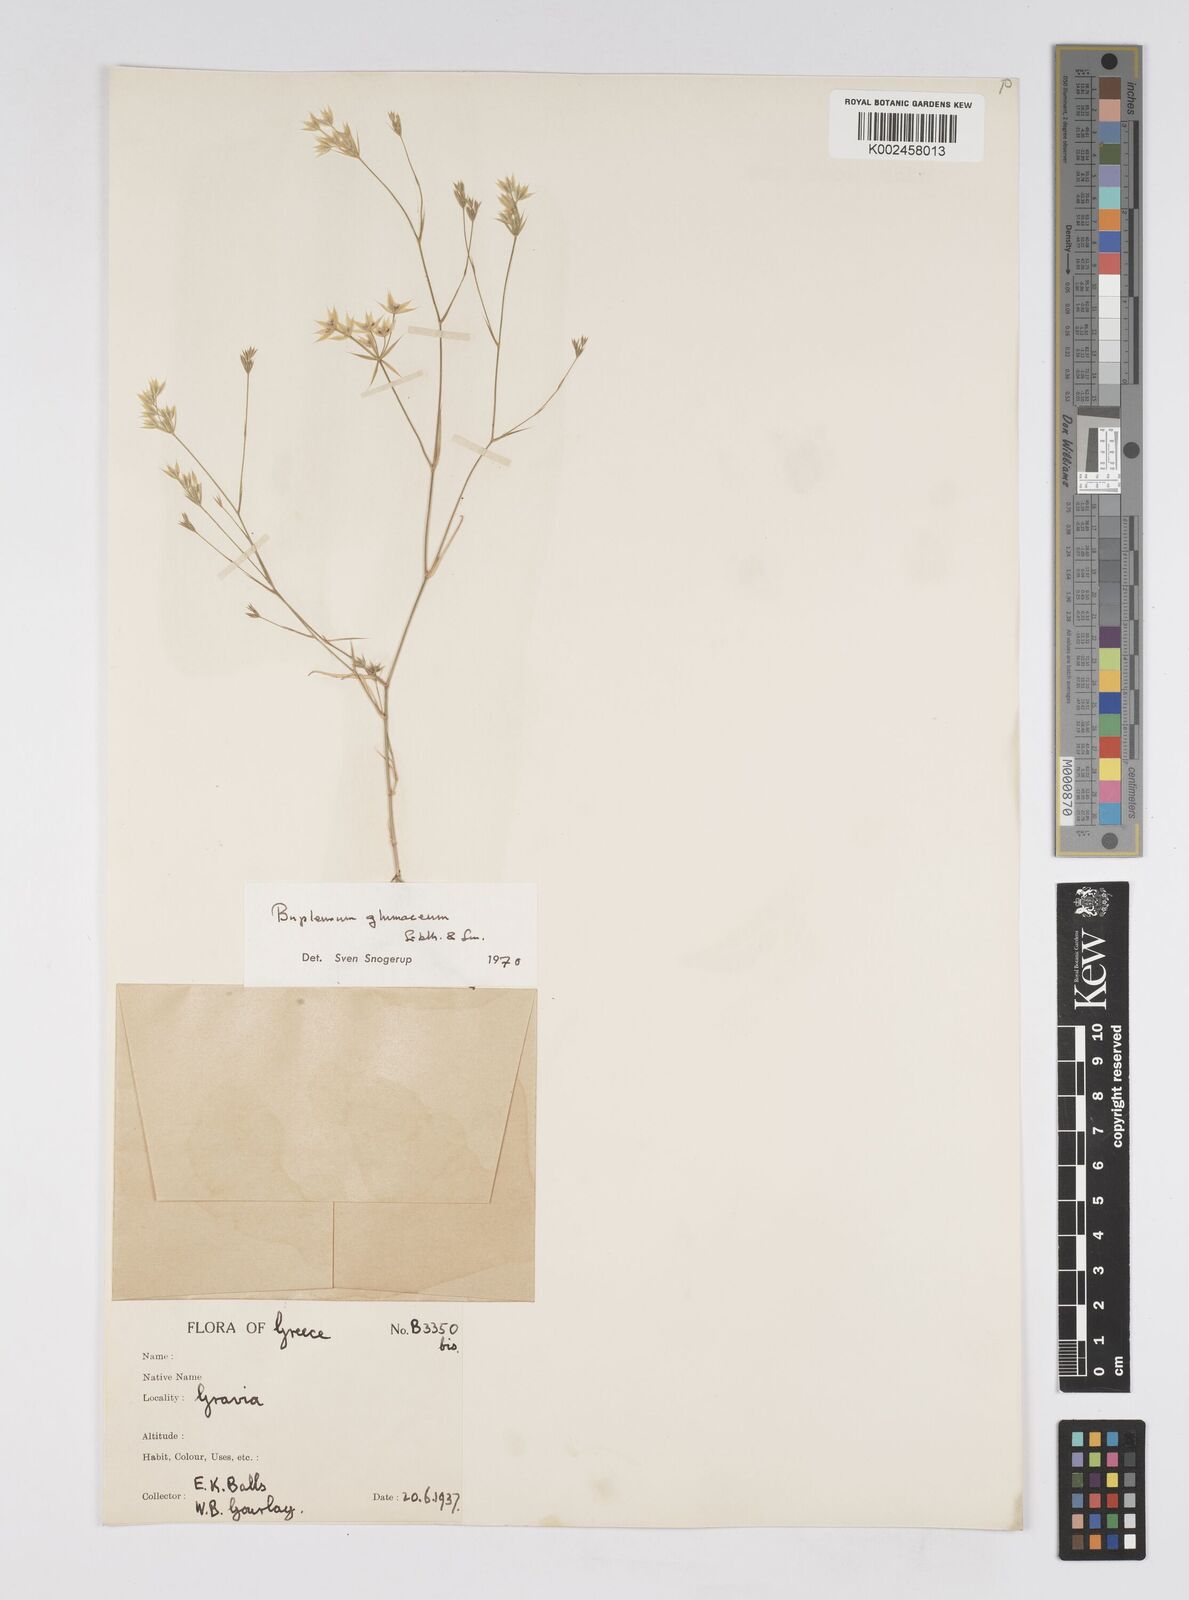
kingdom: Plantae
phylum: Tracheophyta
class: Magnoliopsida
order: Apiales
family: Apiaceae
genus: Bupleurum
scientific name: Bupleurum glumaceum
